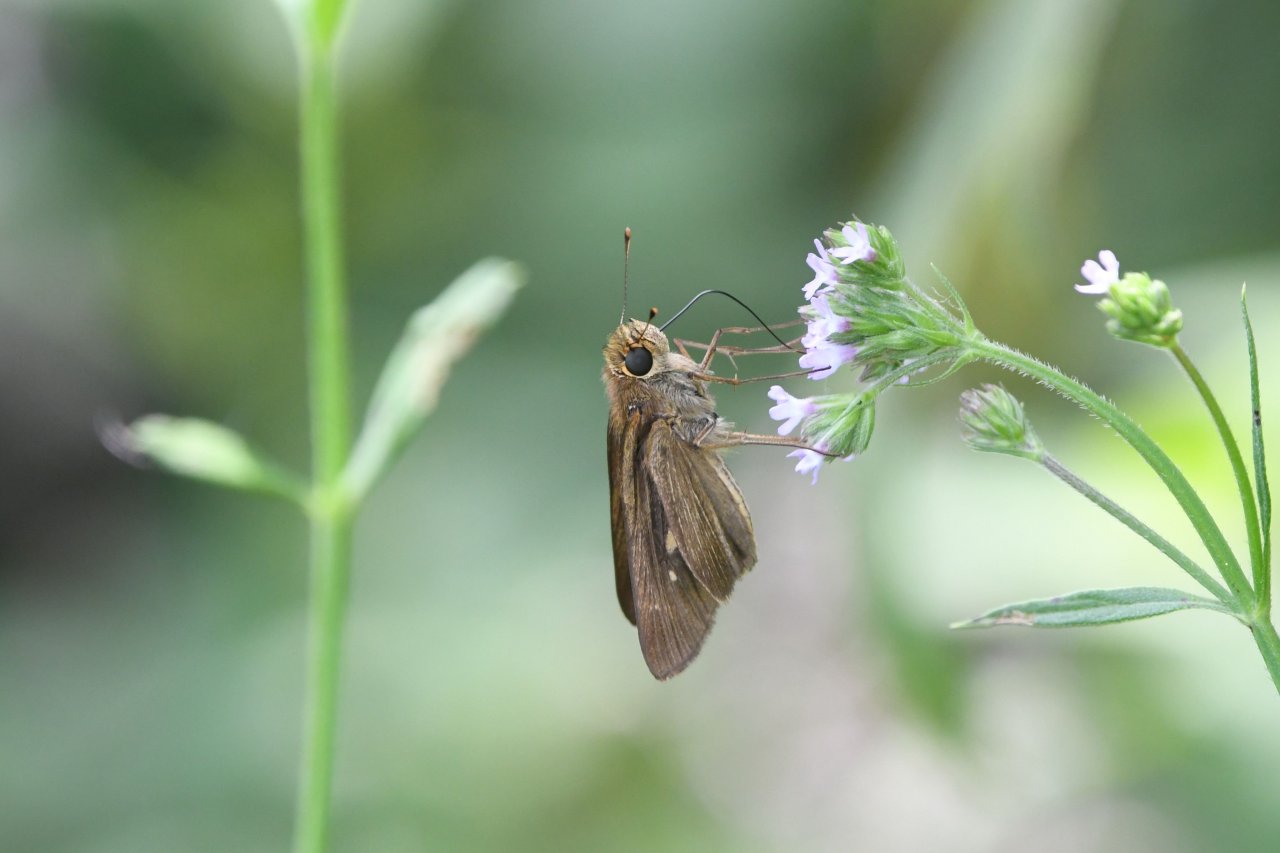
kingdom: Animalia
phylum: Arthropoda
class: Insecta
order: Lepidoptera
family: Hesperiidae
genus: Panoquina
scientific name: Panoquina ocola
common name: Ocola Skipper
